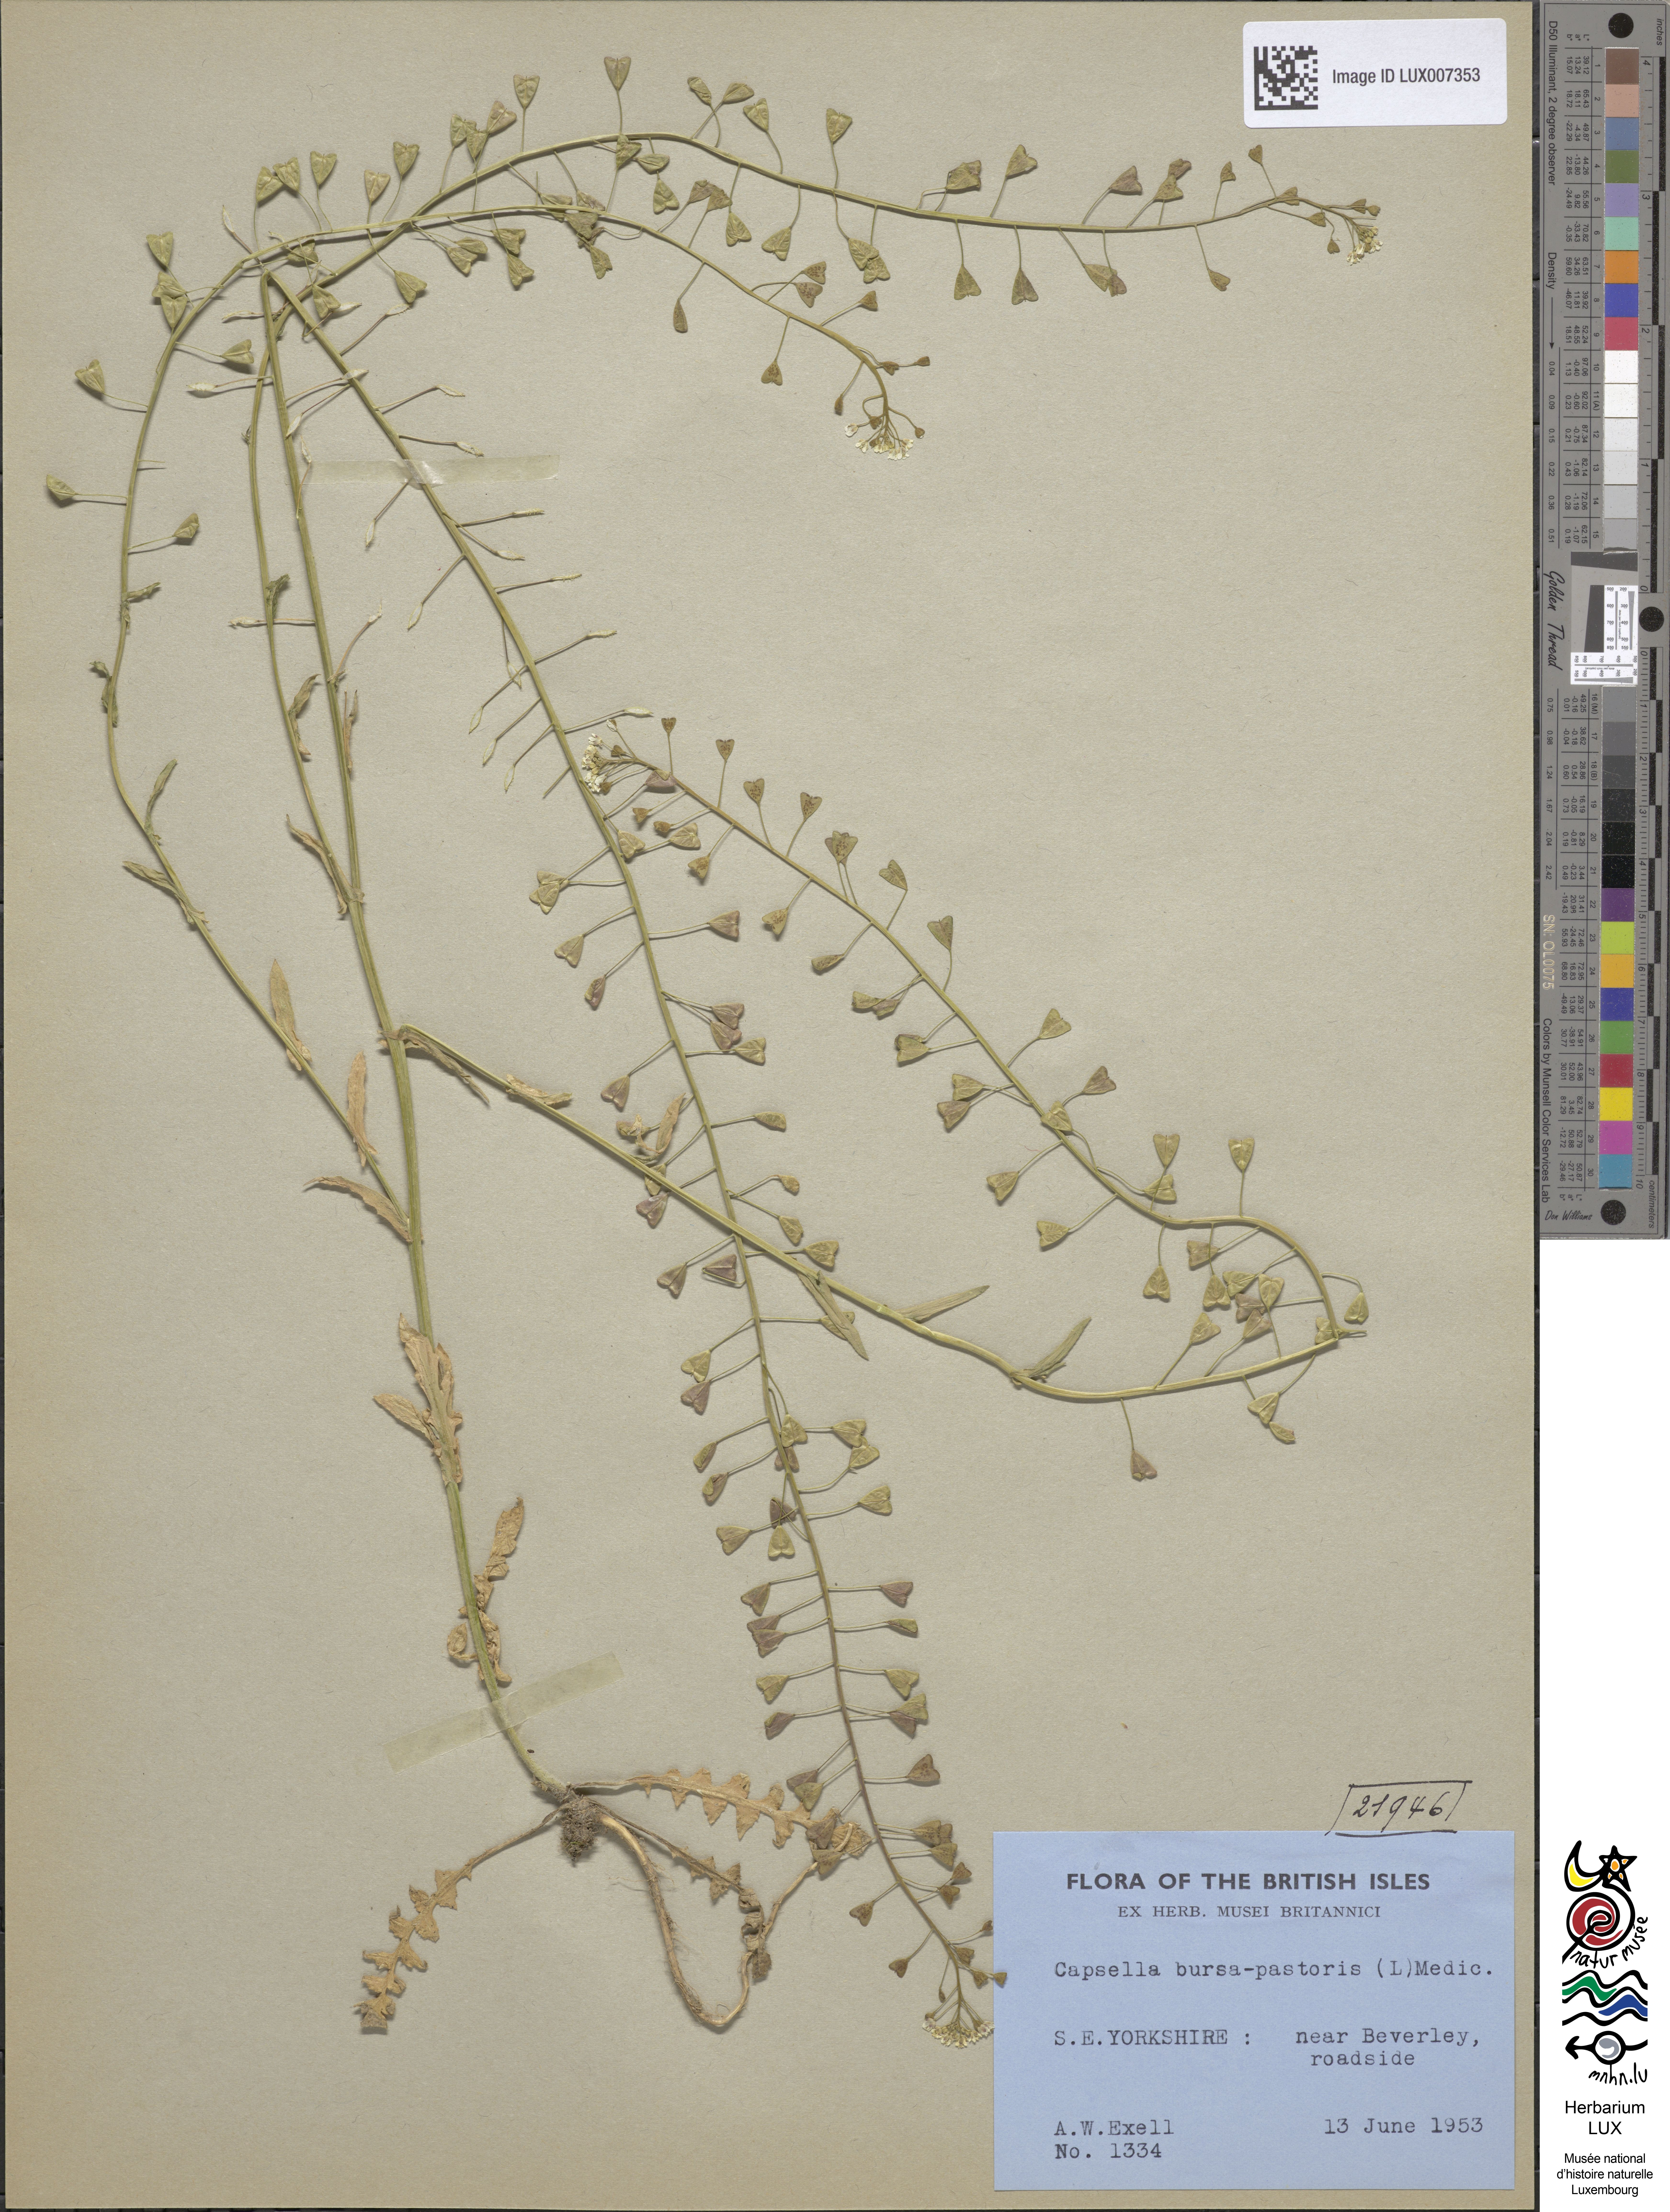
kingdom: Plantae
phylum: Tracheophyta
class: Magnoliopsida
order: Brassicales
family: Brassicaceae
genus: Capsella
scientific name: Capsella bursa-pastoris
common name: Shepherd's purse
